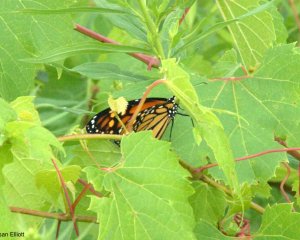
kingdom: Animalia
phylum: Arthropoda
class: Insecta
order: Lepidoptera
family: Nymphalidae
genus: Danaus
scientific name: Danaus plexippus
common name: Monarch
